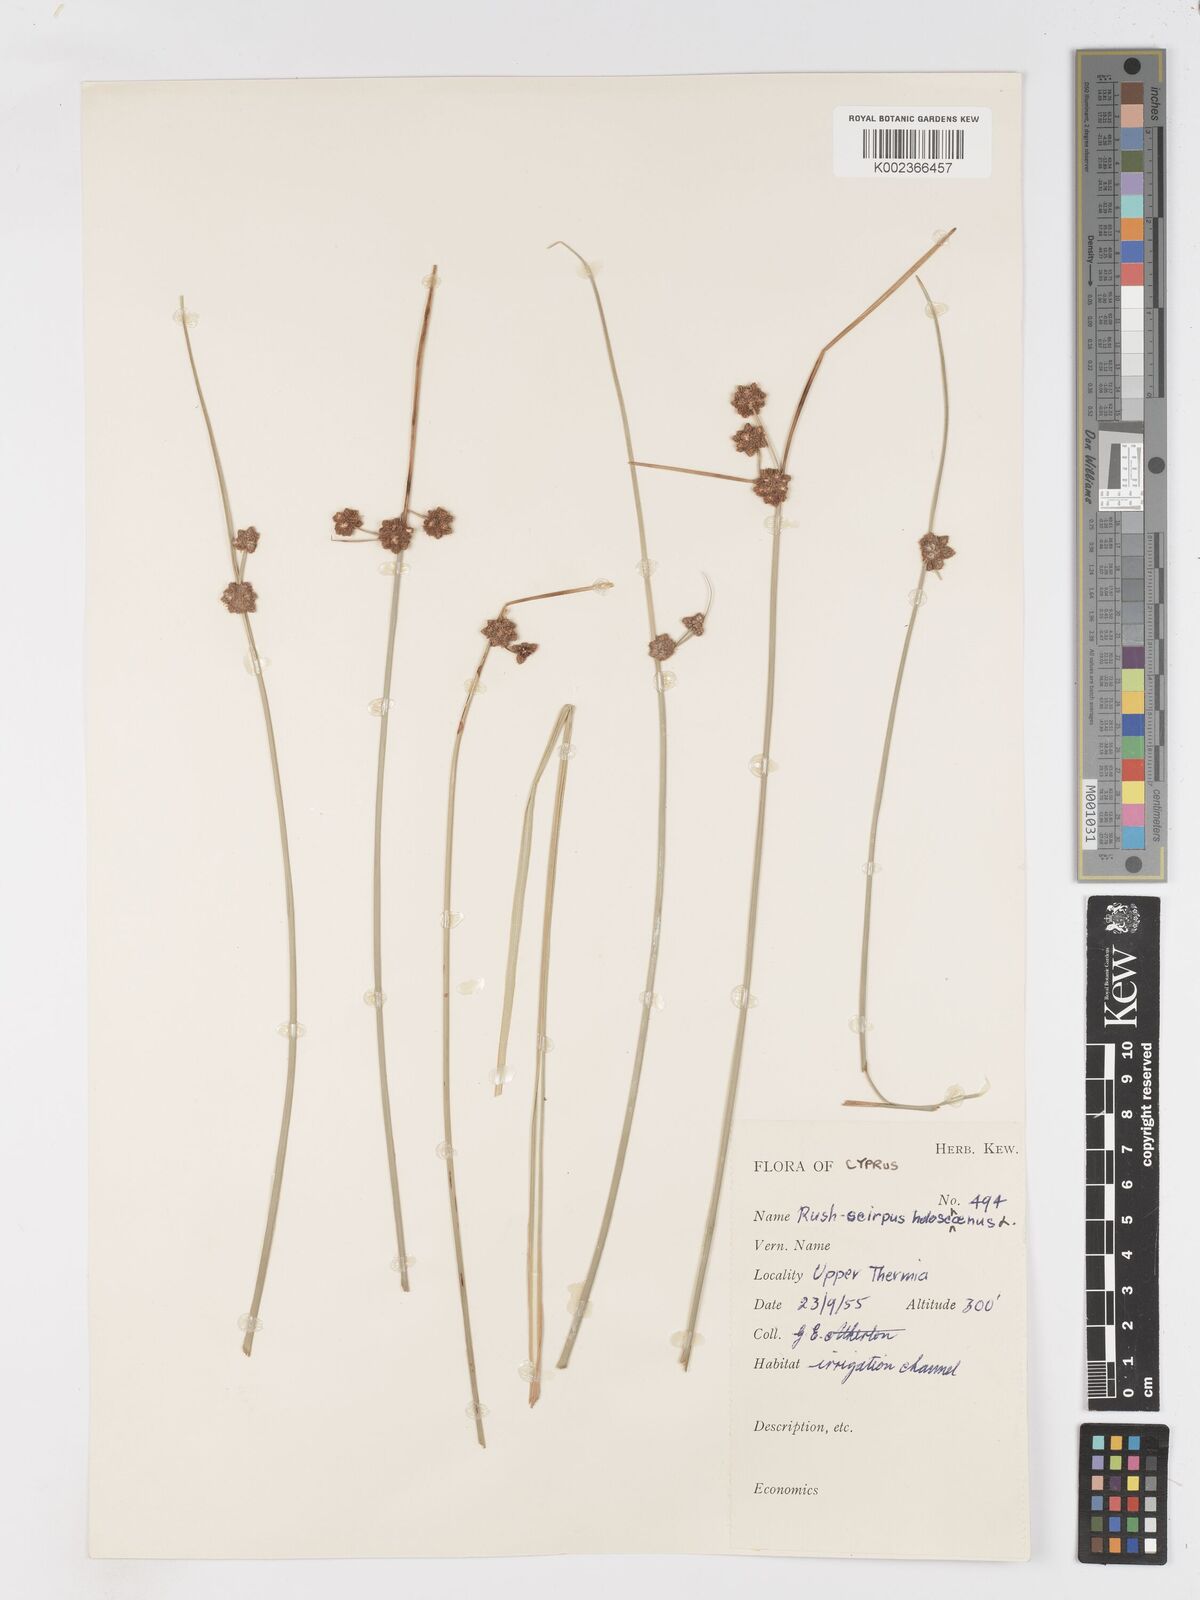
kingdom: Plantae
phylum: Tracheophyta
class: Liliopsida
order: Poales
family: Cyperaceae
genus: Scirpoides
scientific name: Scirpoides holoschoenus
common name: Round-headed club-rush
